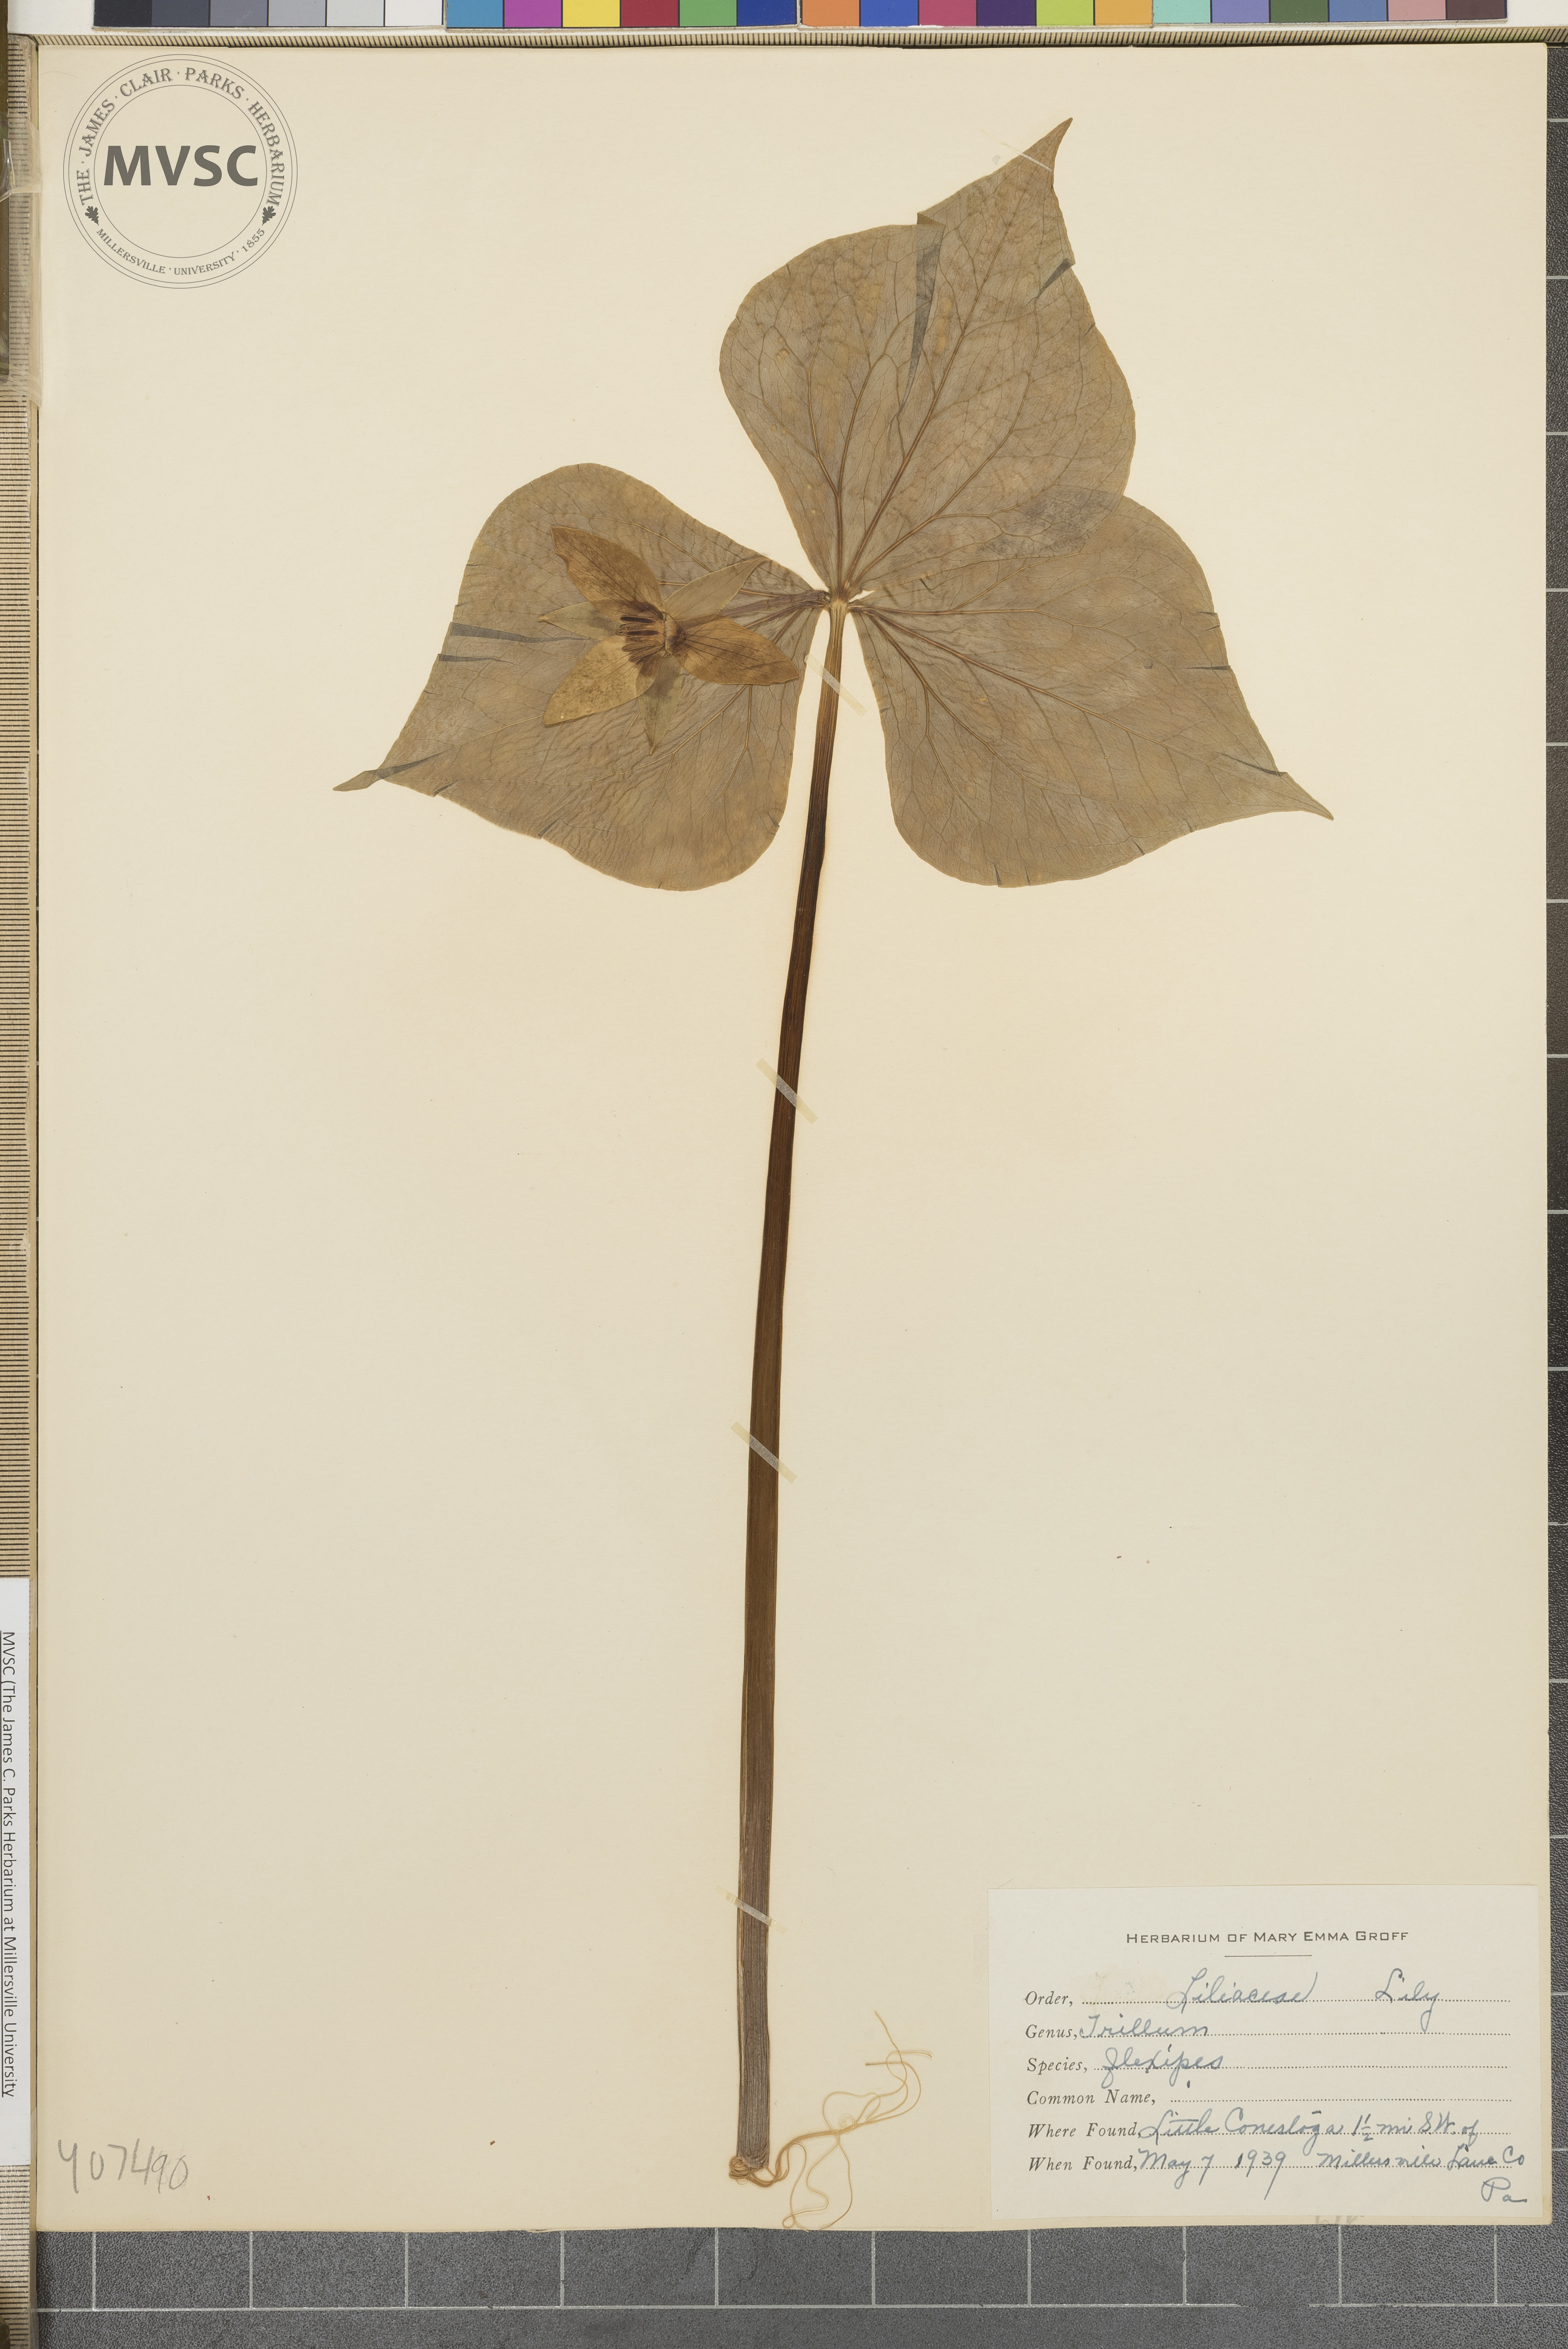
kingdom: Plantae
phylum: Tracheophyta
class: Liliopsida
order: Liliales
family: Melanthiaceae
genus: Trillium
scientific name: Trillium flexipes
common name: Drooping trillium
